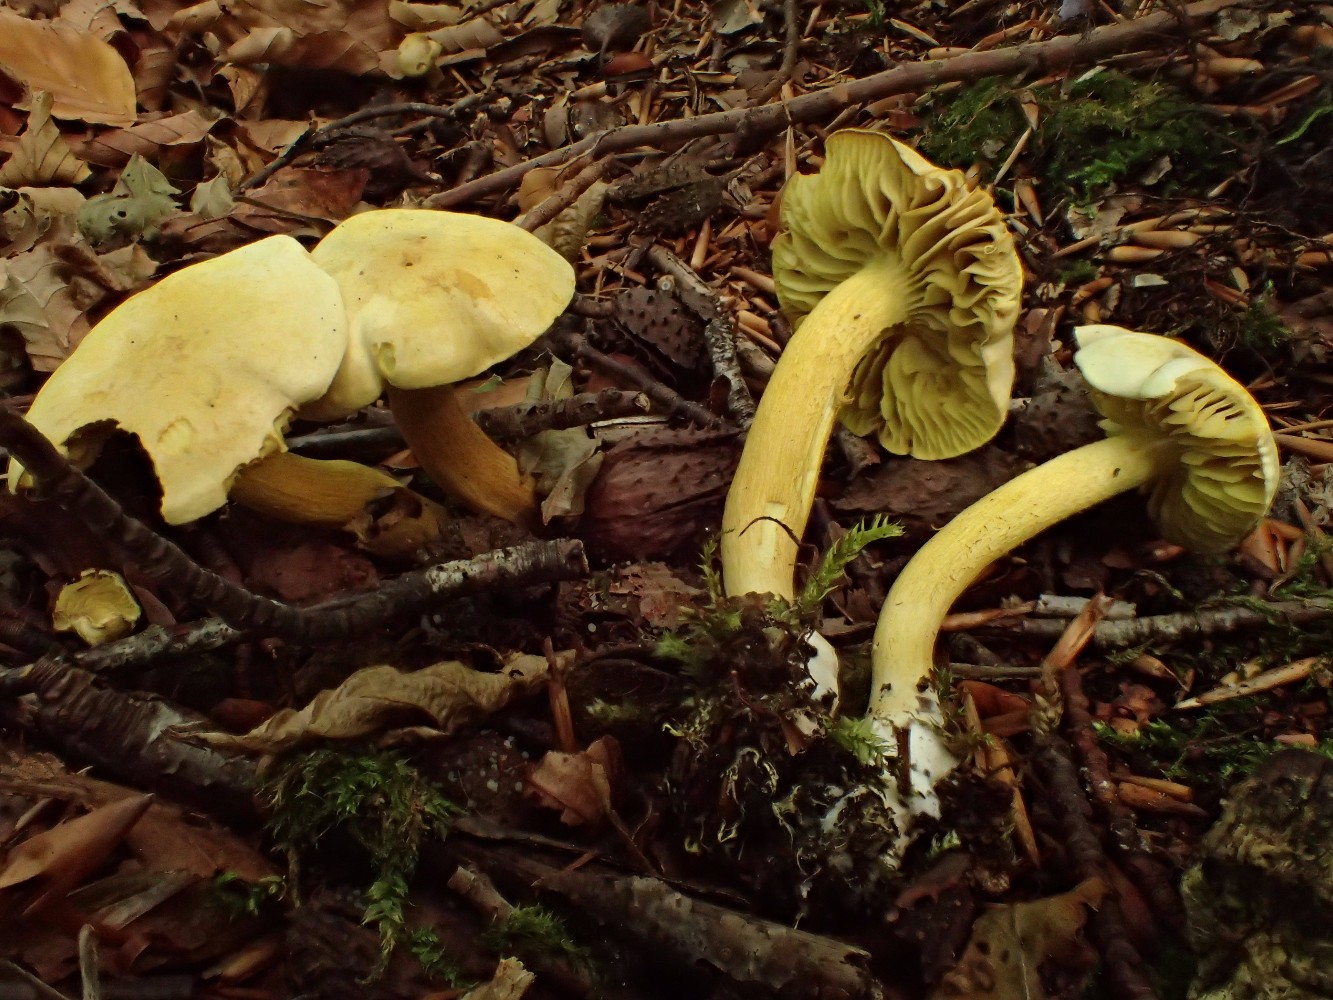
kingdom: Fungi
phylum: Basidiomycota
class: Agaricomycetes
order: Agaricales
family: Tricholomataceae
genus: Tricholoma
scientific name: Tricholoma sulphureum
